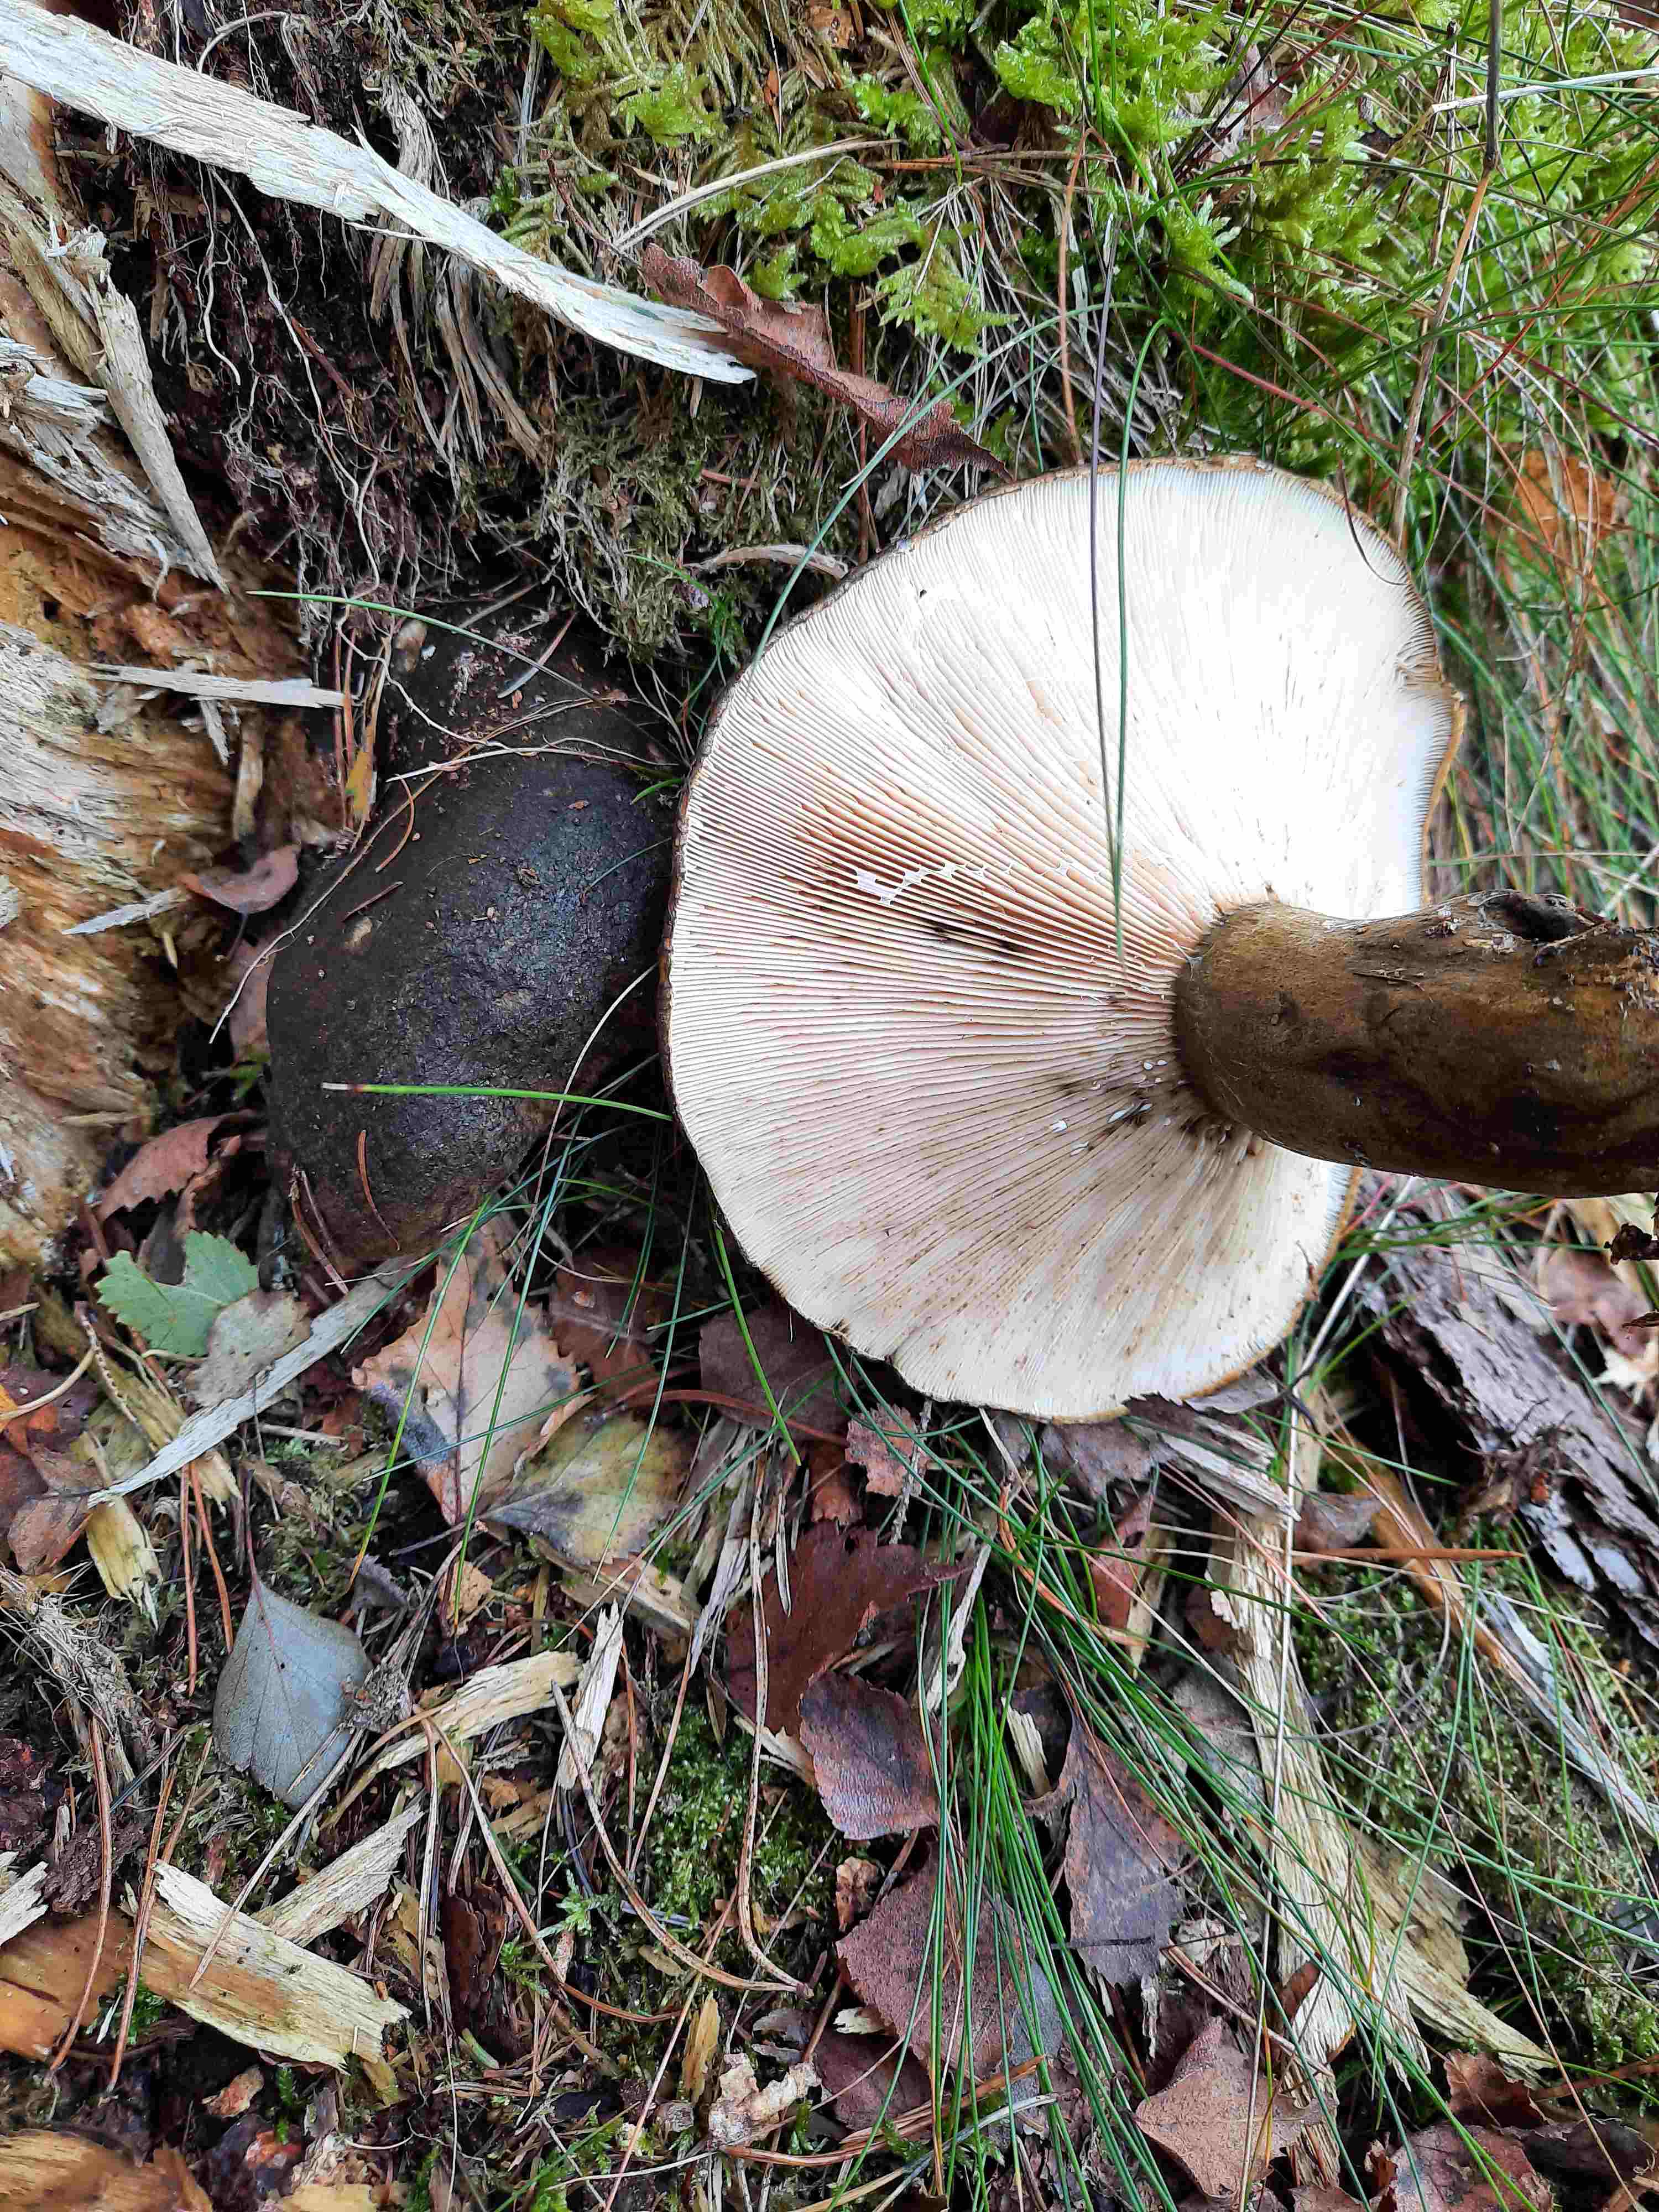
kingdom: Fungi
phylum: Basidiomycota
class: Agaricomycetes
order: Russulales
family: Russulaceae
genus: Lactarius
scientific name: Lactarius necator
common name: manddraber-mælkehat
